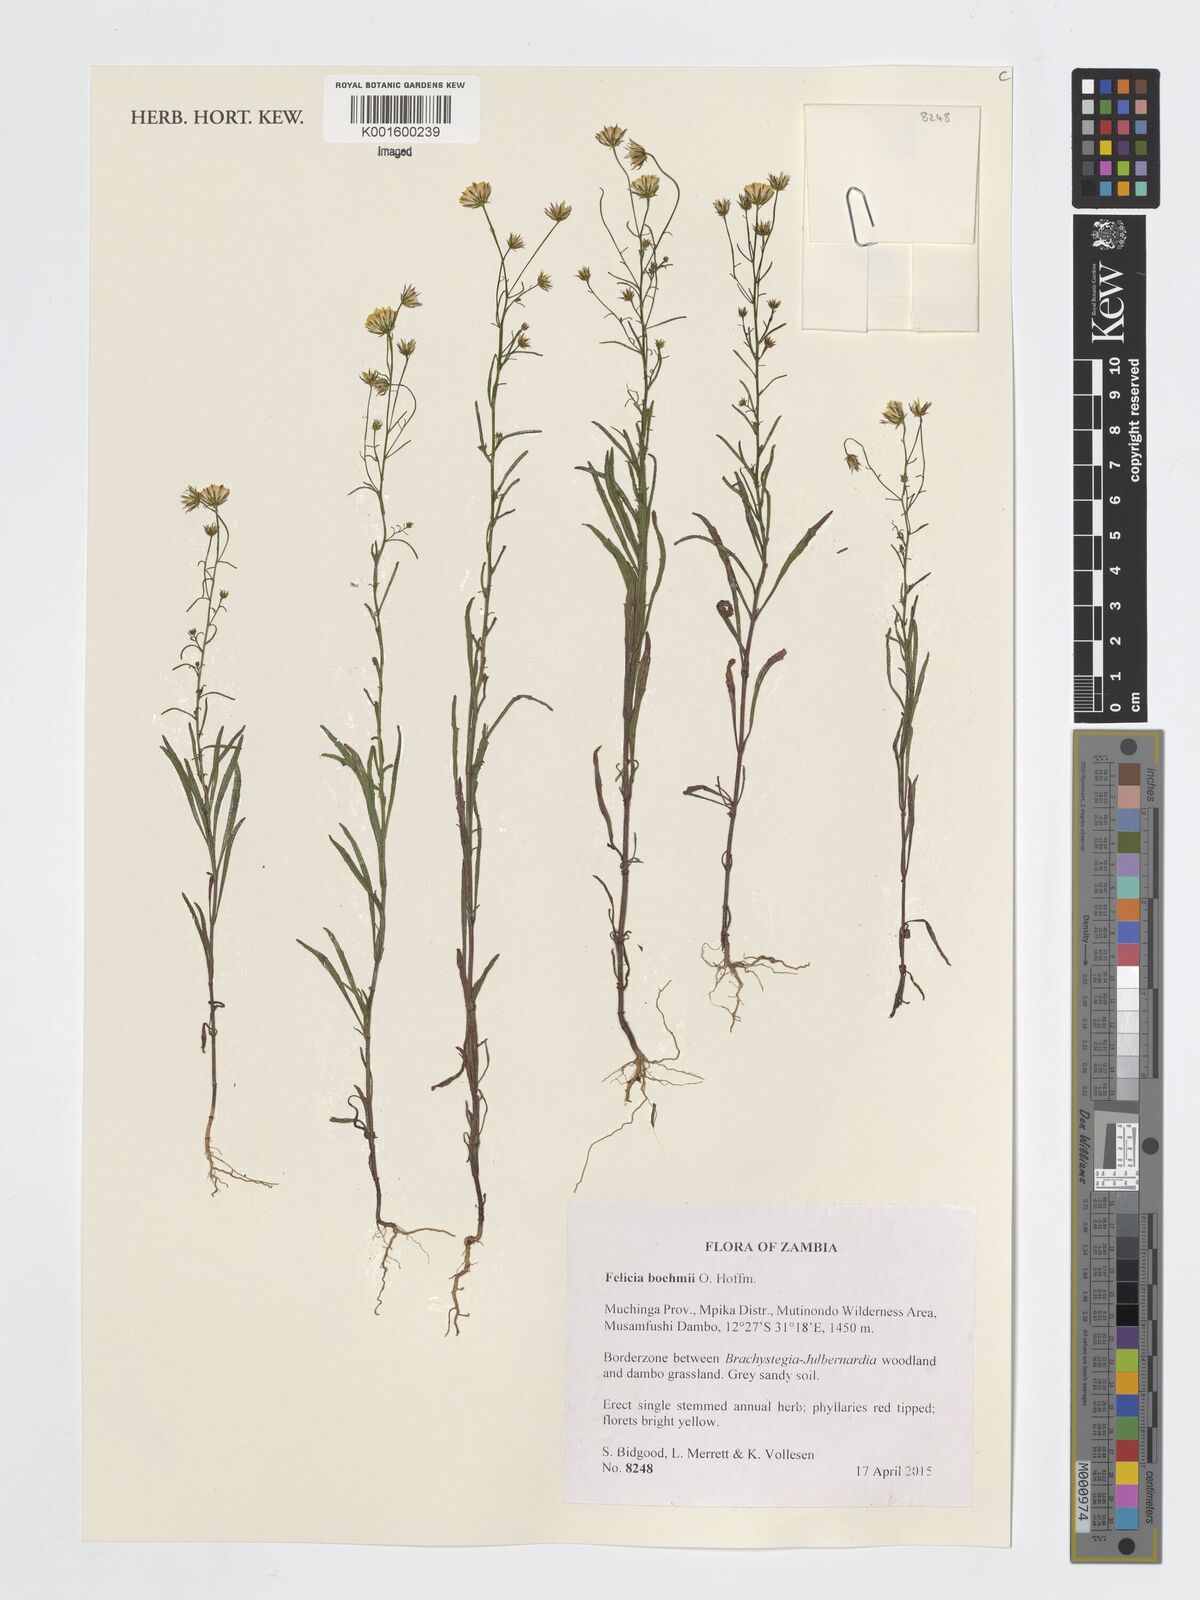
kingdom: Plantae
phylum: Tracheophyta
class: Magnoliopsida
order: Asterales
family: Asteraceae
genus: Felicia
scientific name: Felicia boehmii
